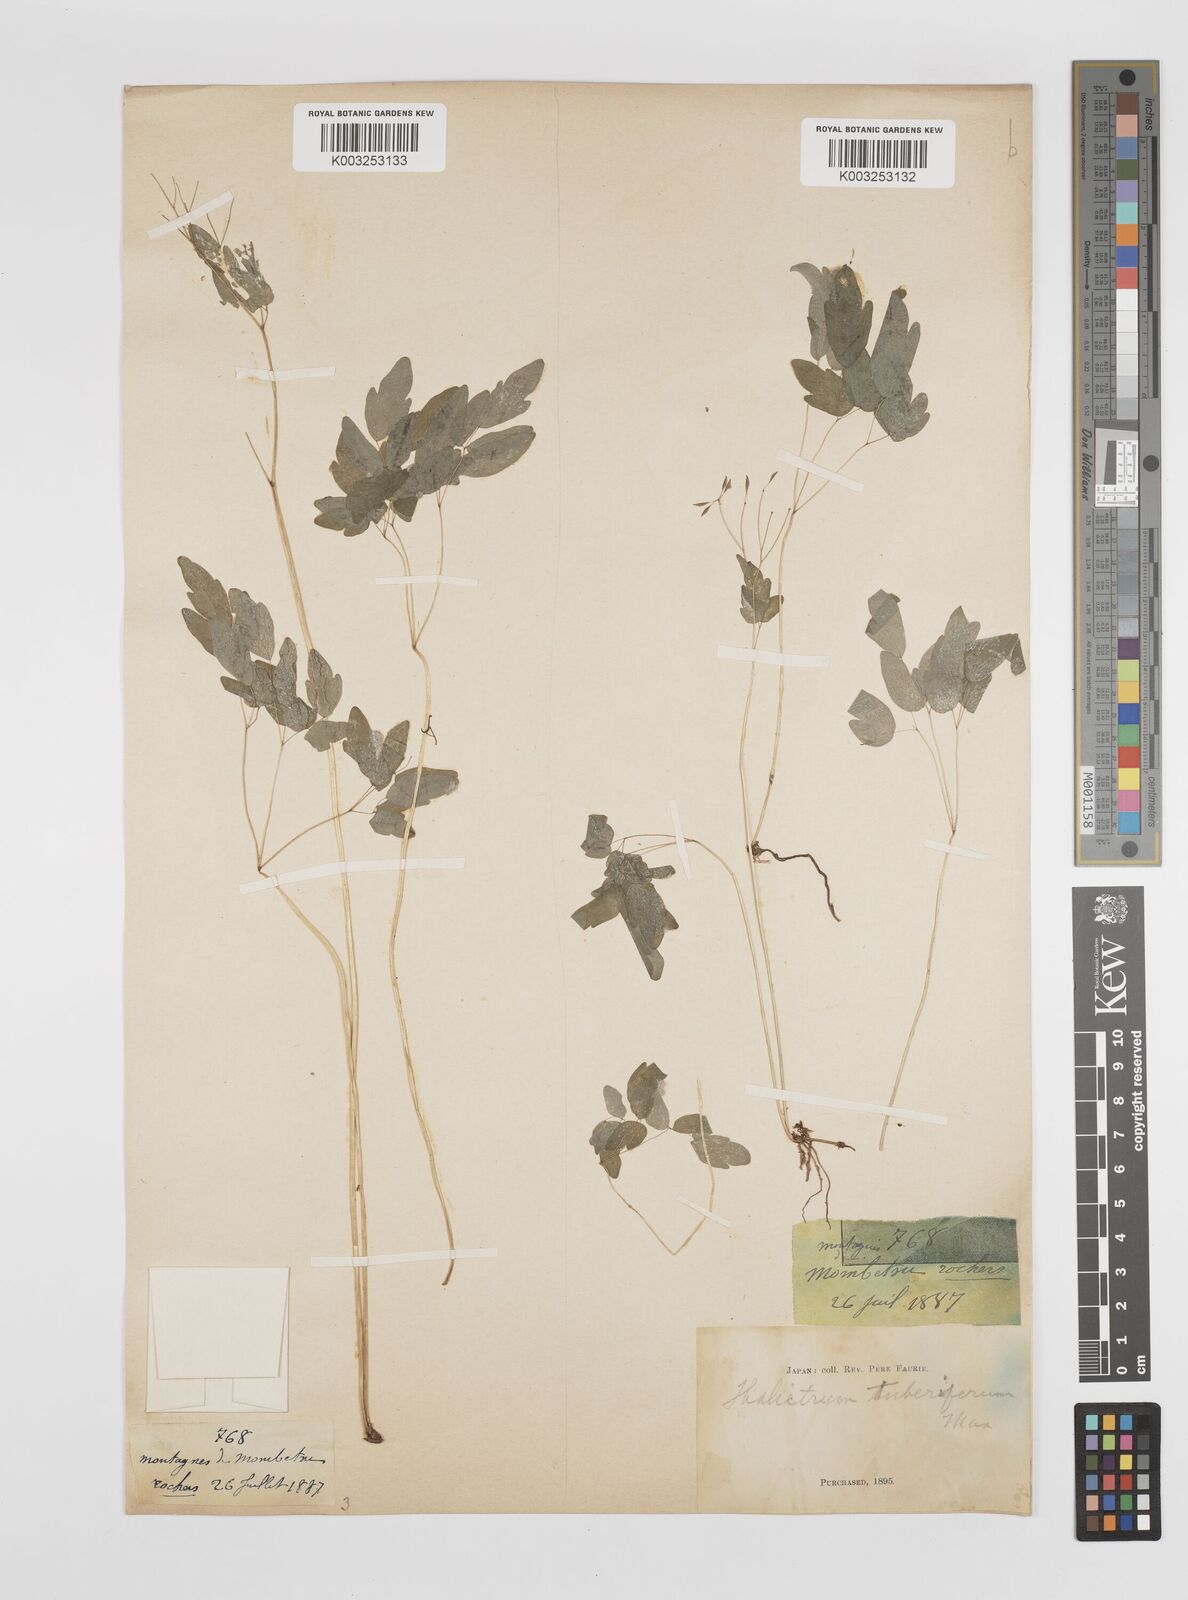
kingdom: Plantae
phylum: Tracheophyta
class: Magnoliopsida
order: Ranunculales
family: Ranunculaceae
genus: Thalictrum
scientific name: Thalictrum tuberiferum
